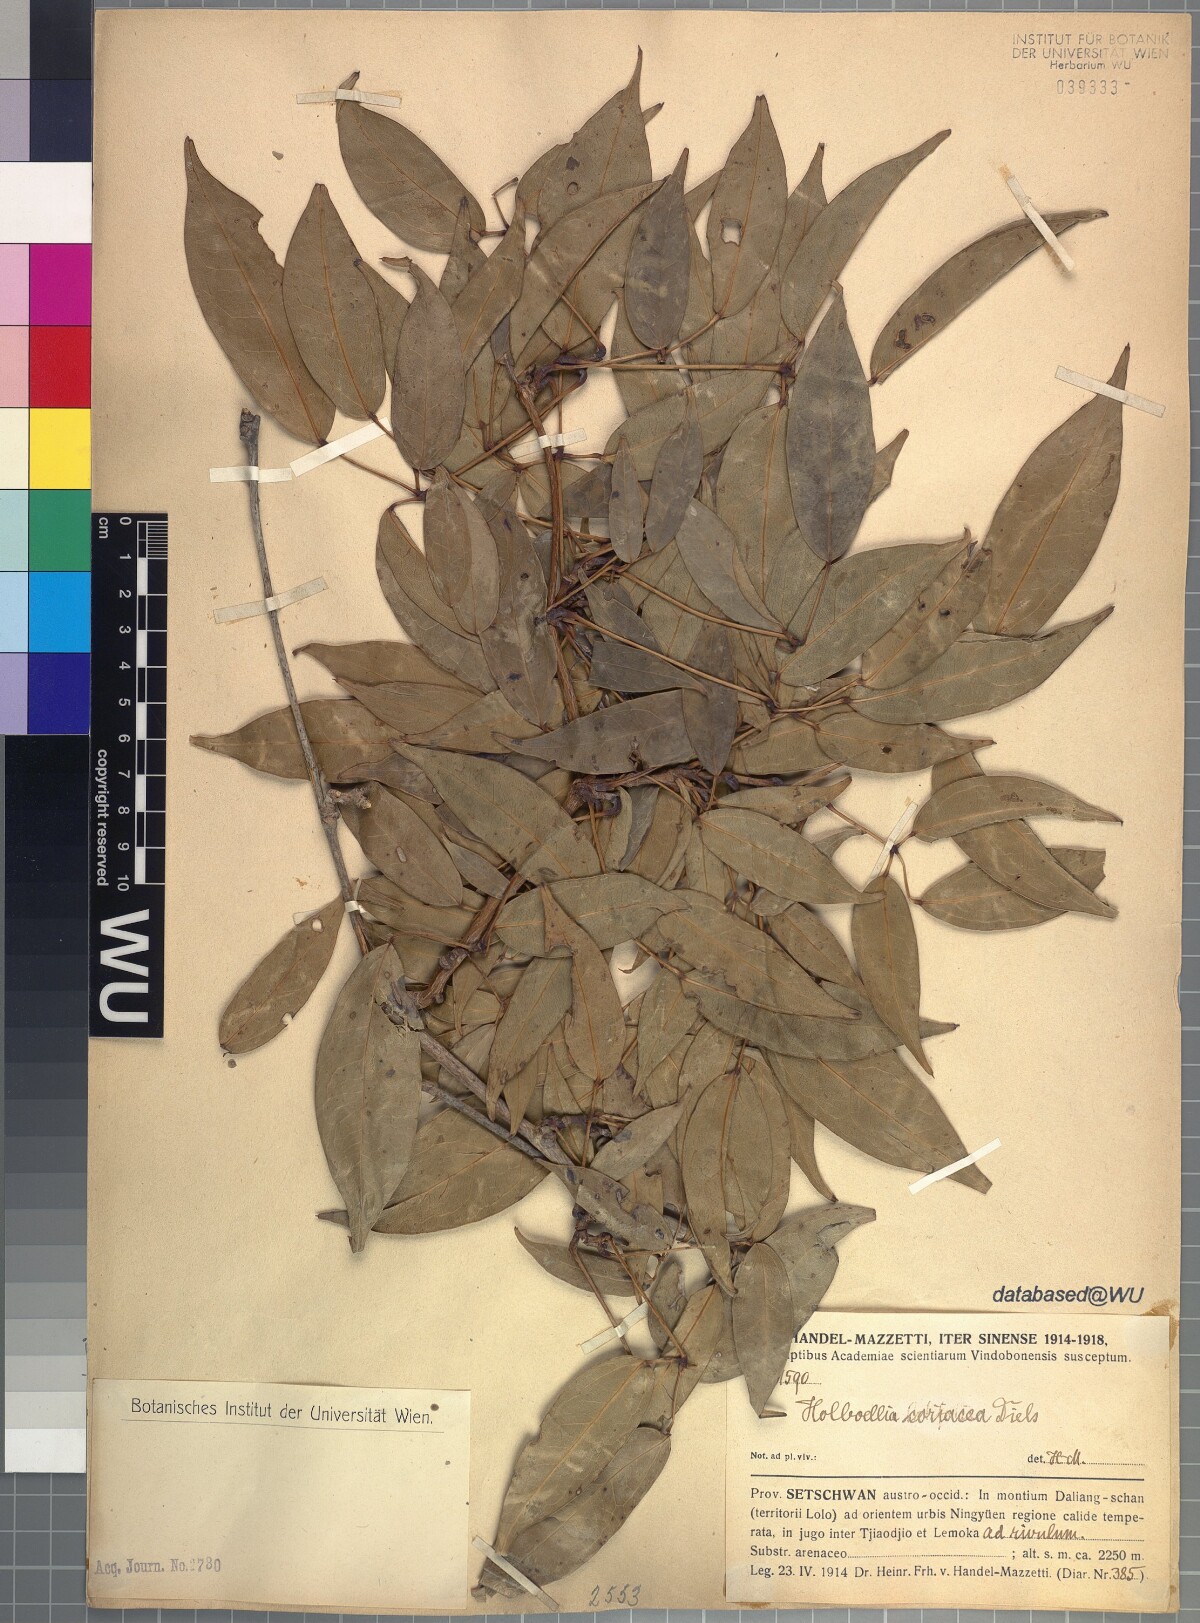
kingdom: Plantae
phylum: Tracheophyta
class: Magnoliopsida
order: Ranunculales
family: Lardizabalaceae
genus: Stauntonia
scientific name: Stauntonia coriacea
